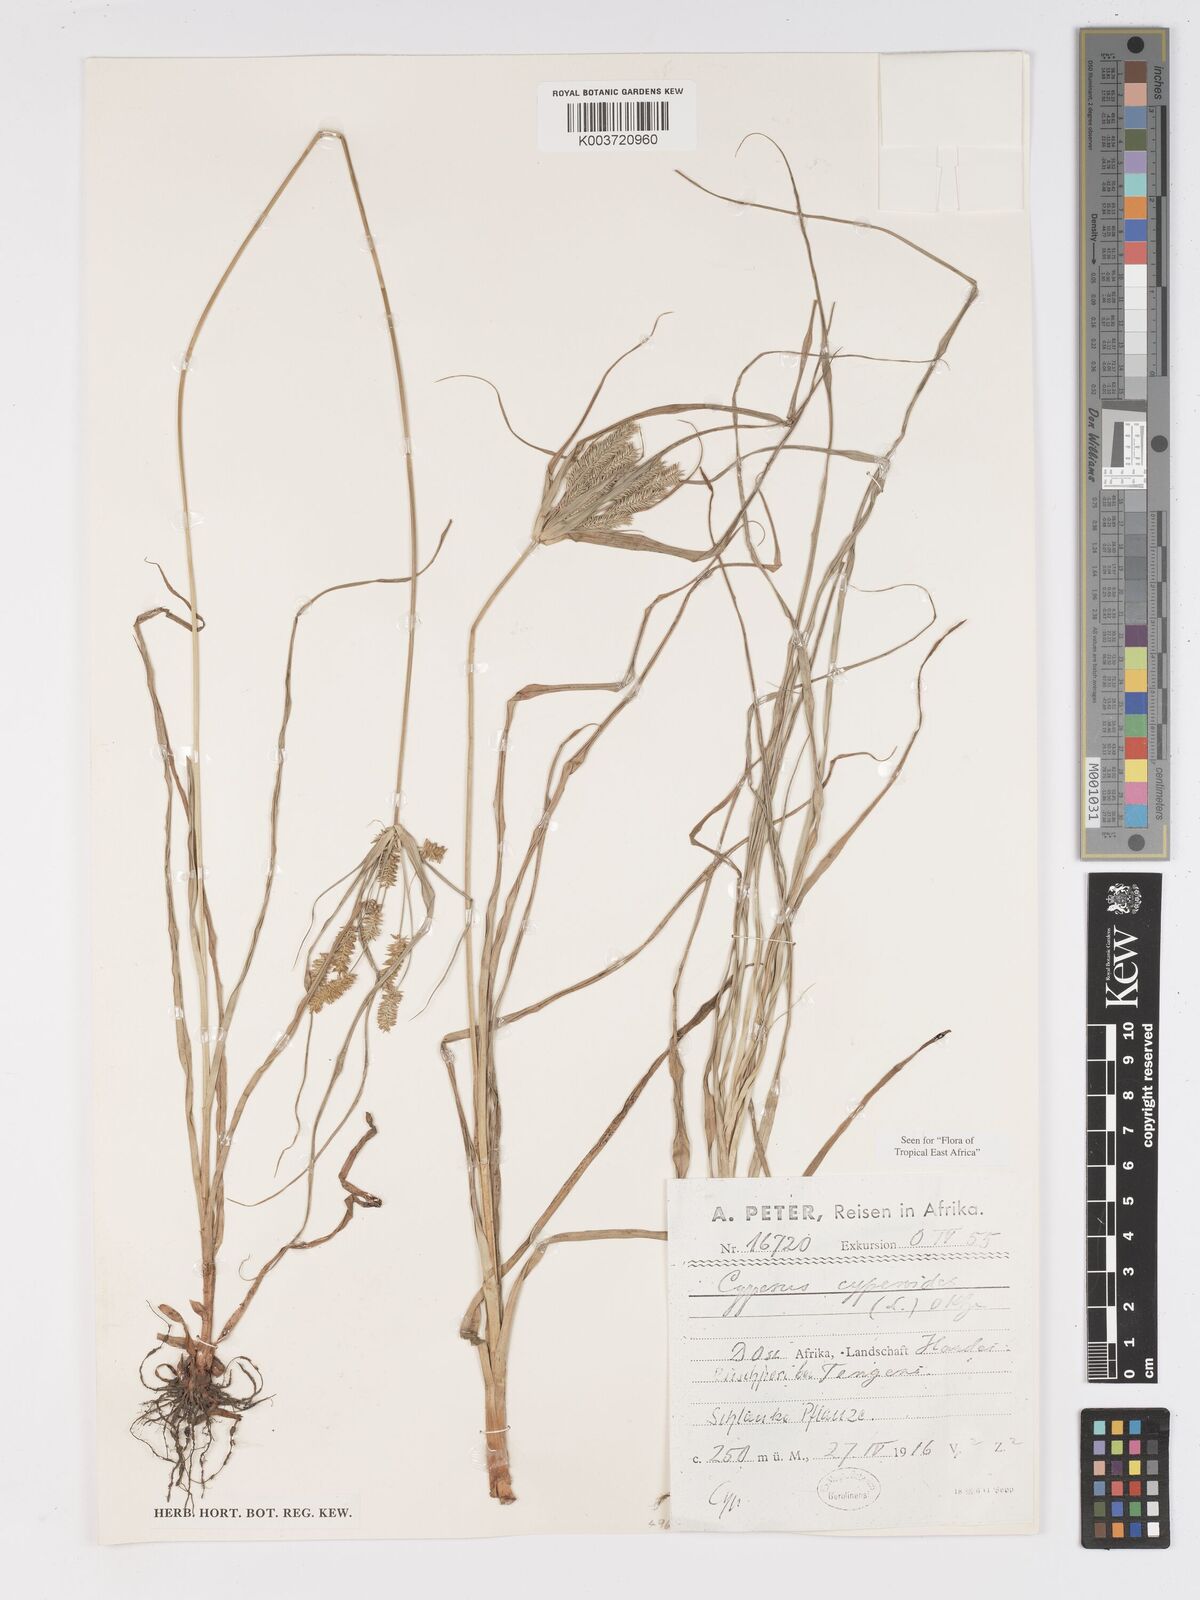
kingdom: Plantae
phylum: Tracheophyta
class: Liliopsida
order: Poales
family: Cyperaceae
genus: Cyperus
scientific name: Cyperus cyperoides
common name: Pacific island flat sedge
